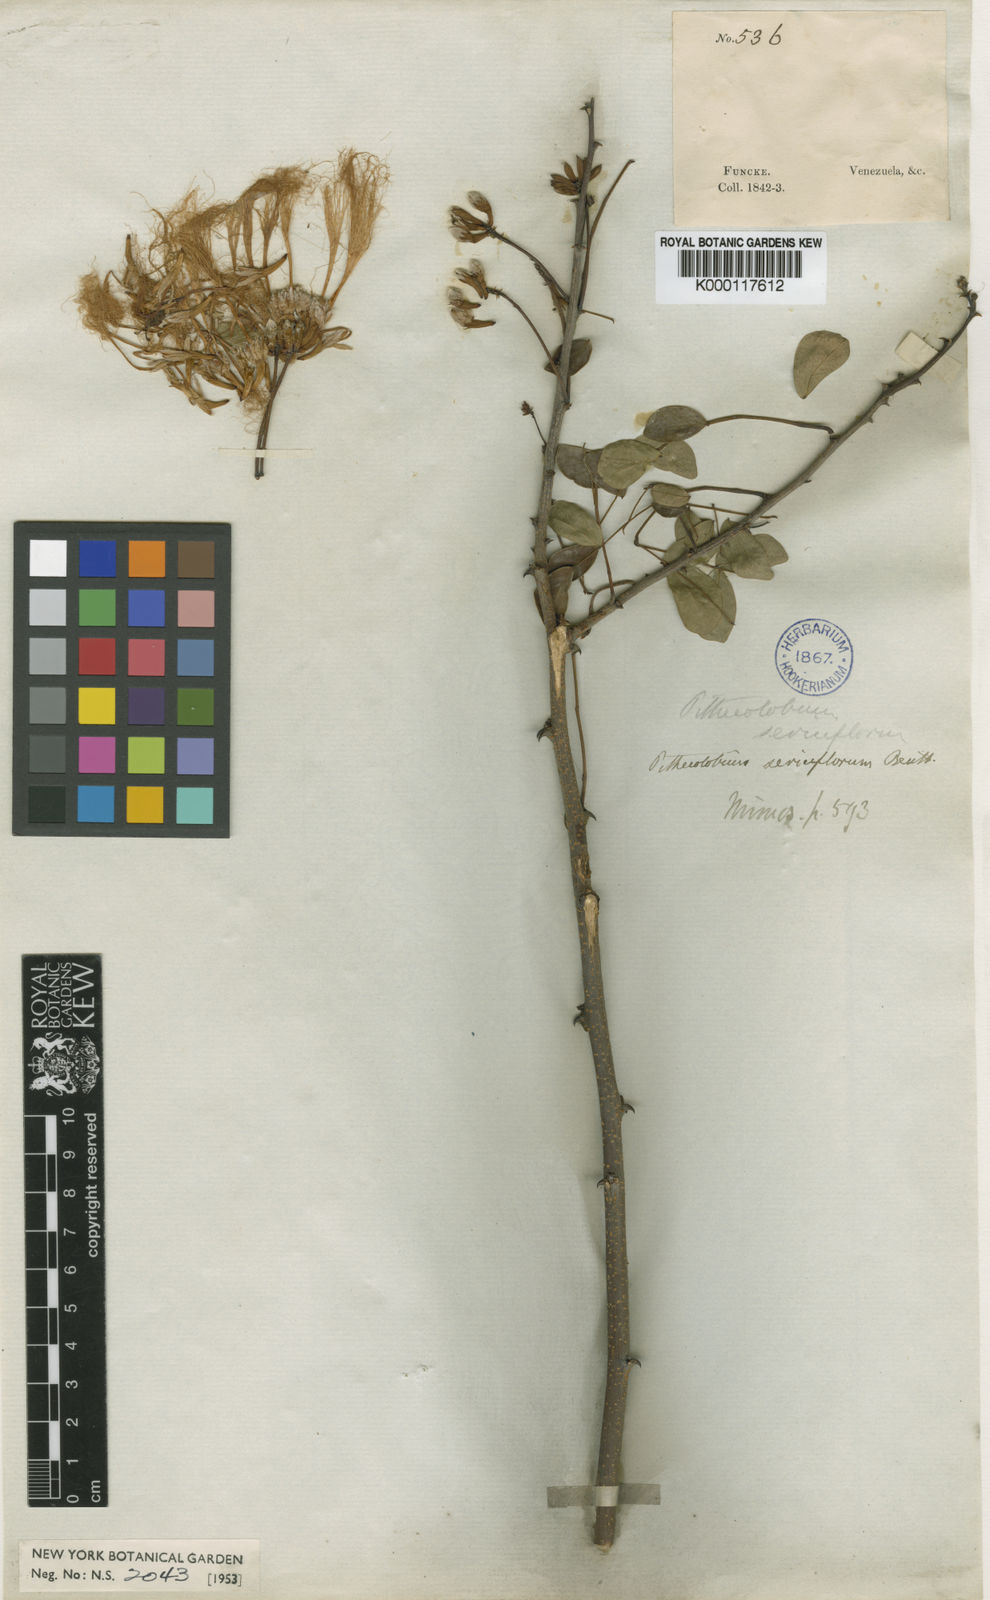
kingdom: Plantae
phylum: Tracheophyta
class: Magnoliopsida
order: Fabales
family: Fabaceae
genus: Havardia
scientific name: Havardia platyloba
